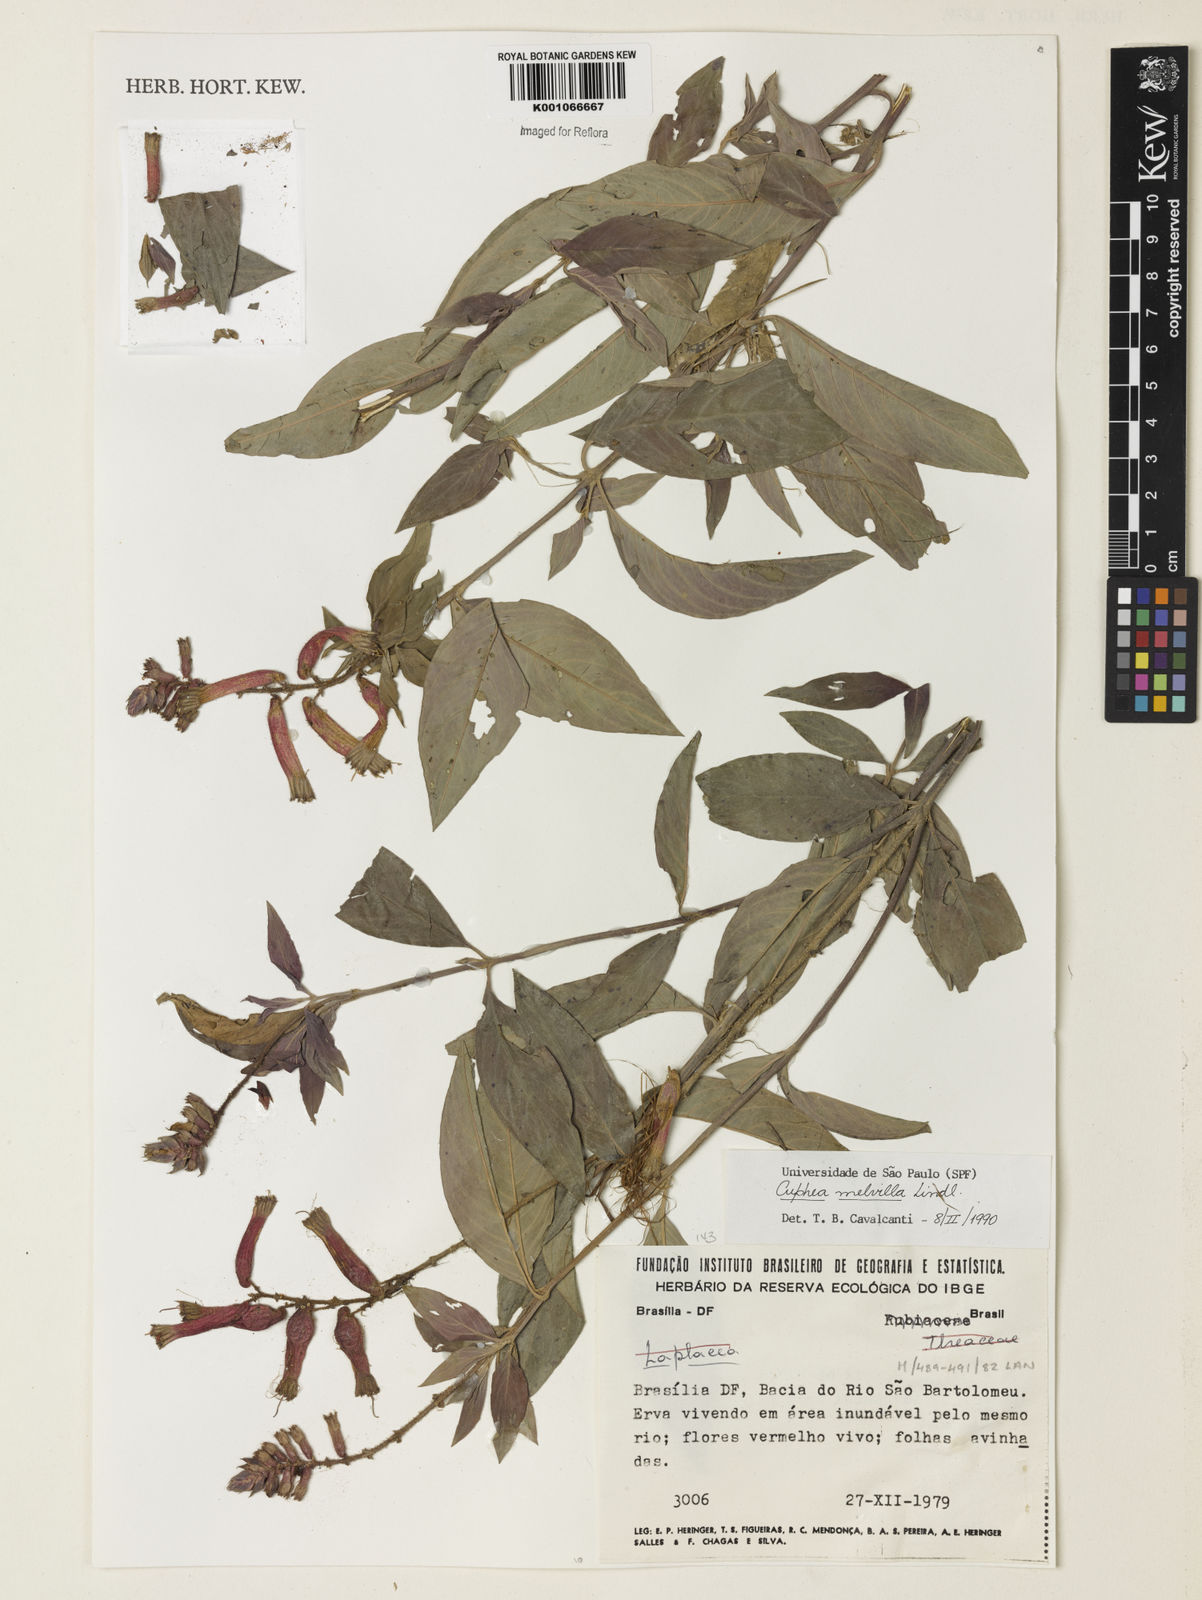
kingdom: Plantae
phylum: Tracheophyta
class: Magnoliopsida
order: Myrtales
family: Lythraceae
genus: Cuphea
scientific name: Cuphea melvilla
